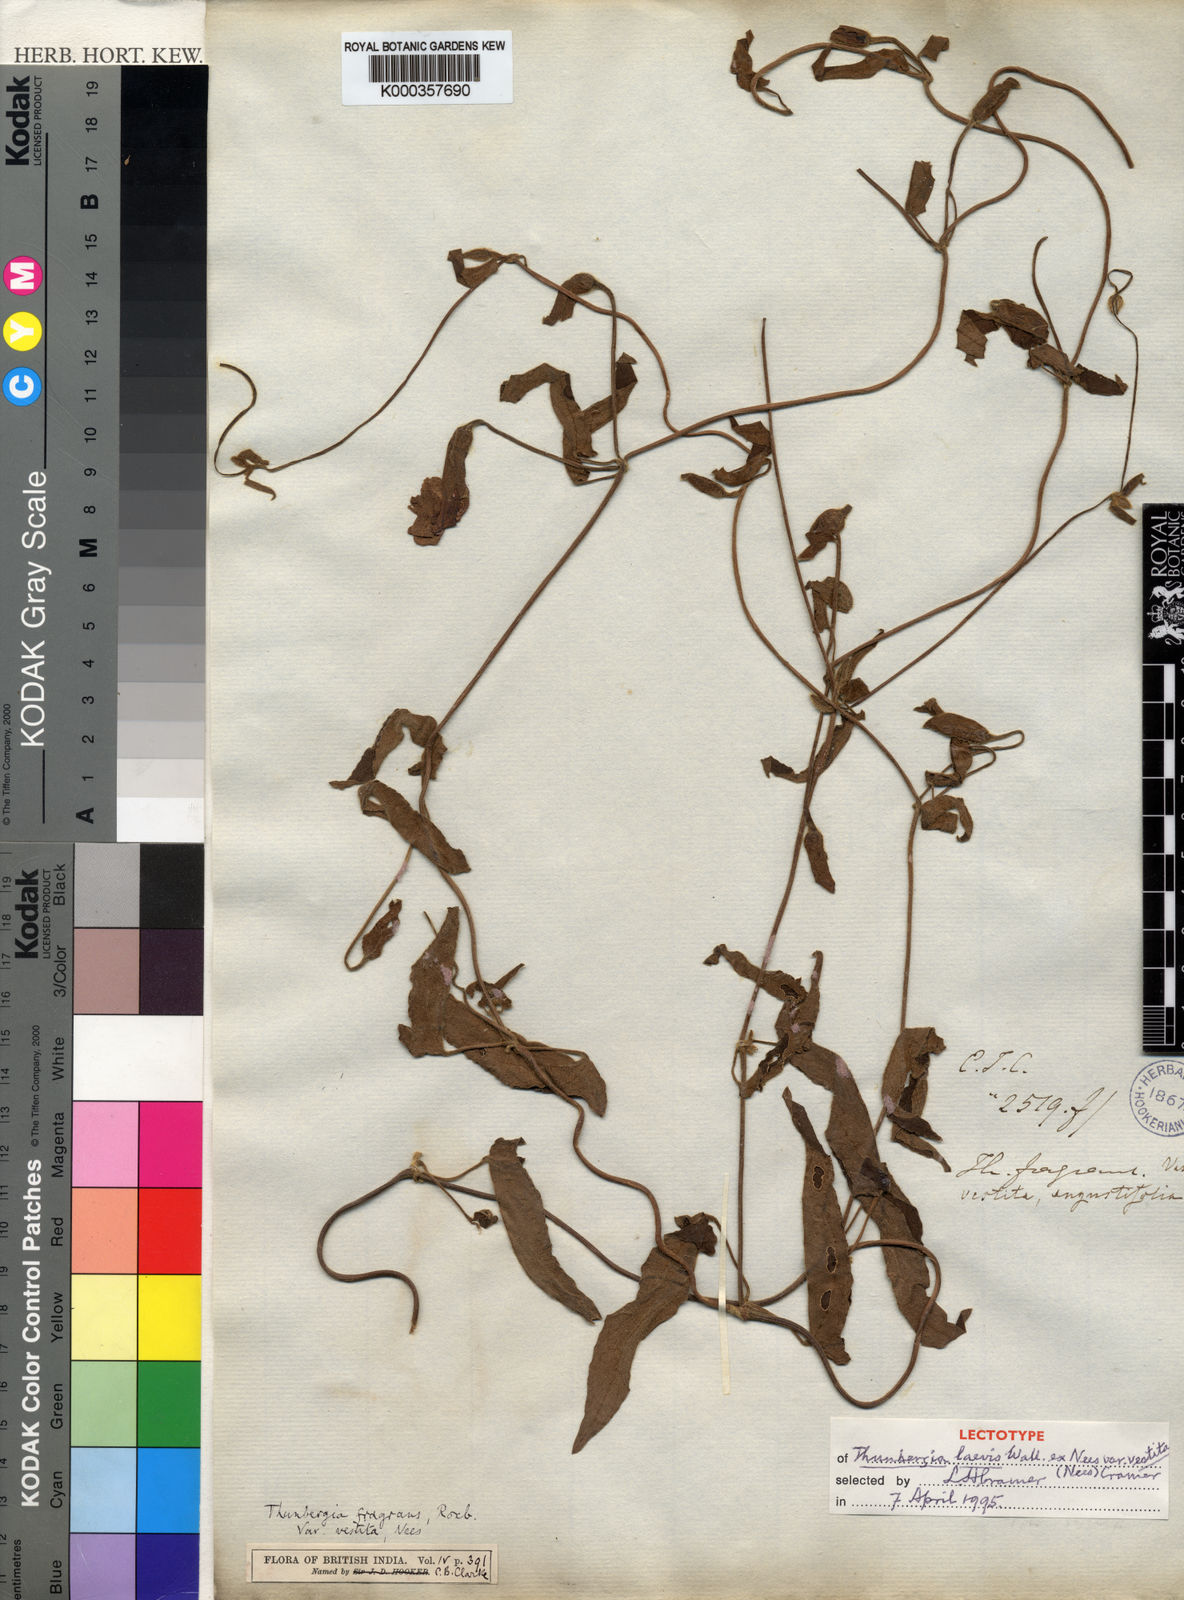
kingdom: Plantae
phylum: Tracheophyta
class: Magnoliopsida
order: Lamiales
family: Acanthaceae
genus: Thunbergia
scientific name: Thunbergia laevis
